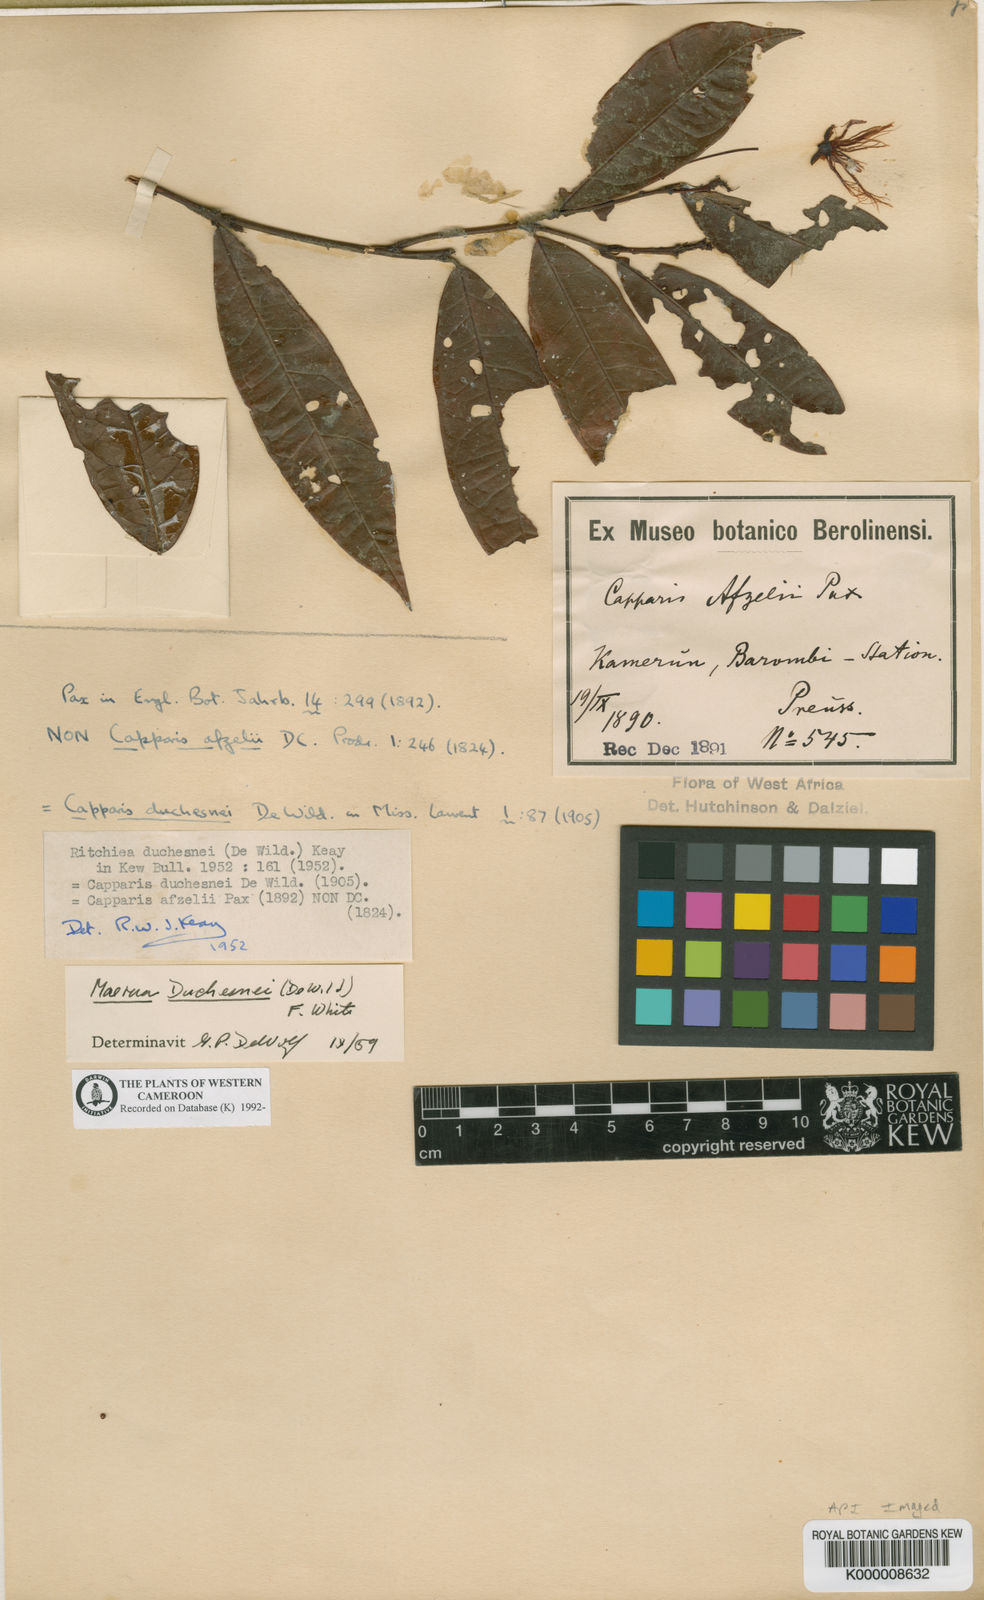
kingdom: Plantae
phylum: Tracheophyta
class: Magnoliopsida
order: Brassicales
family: Capparaceae
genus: Maerua
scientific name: Maerua duchesnei
